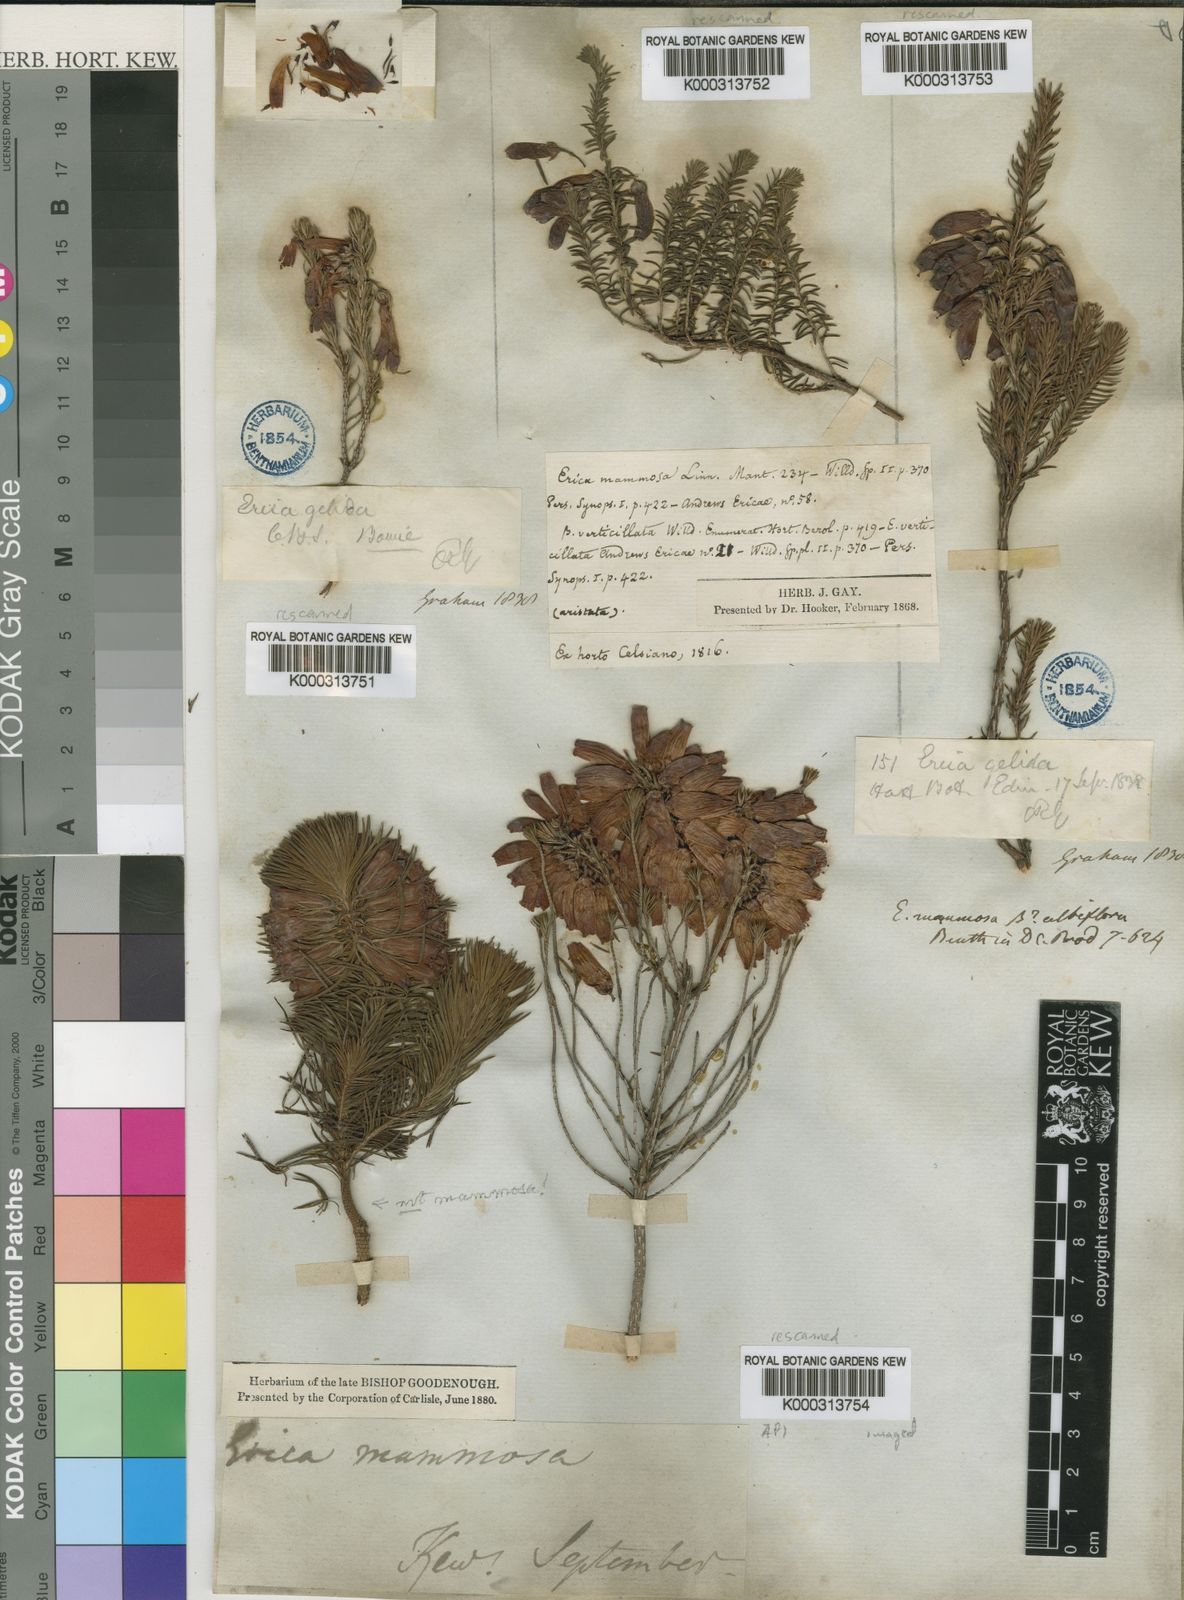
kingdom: Plantae
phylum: Tracheophyta
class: Magnoliopsida
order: Ericales
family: Ericaceae
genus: Erica
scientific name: Erica mammosa
